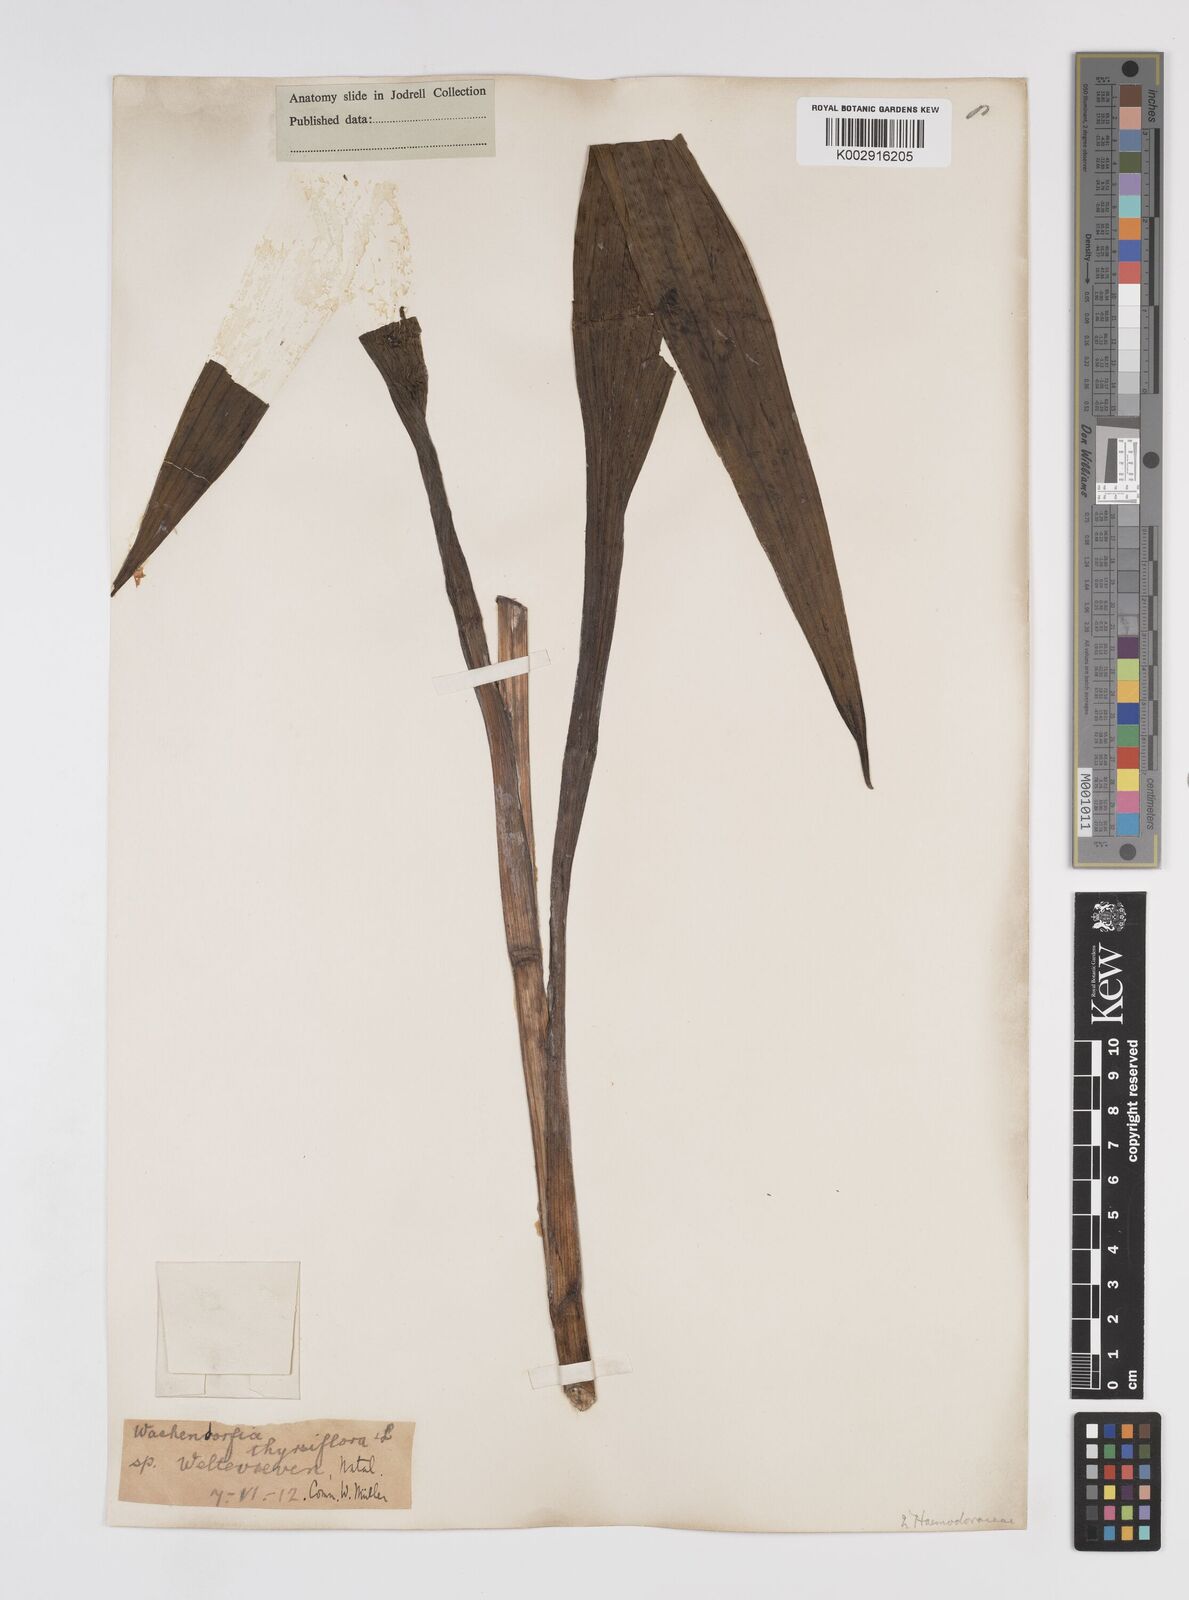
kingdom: Plantae
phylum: Tracheophyta
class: Liliopsida
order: Commelinales
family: Haemodoraceae
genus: Wachendorfia
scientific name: Wachendorfia thyrsiflora
